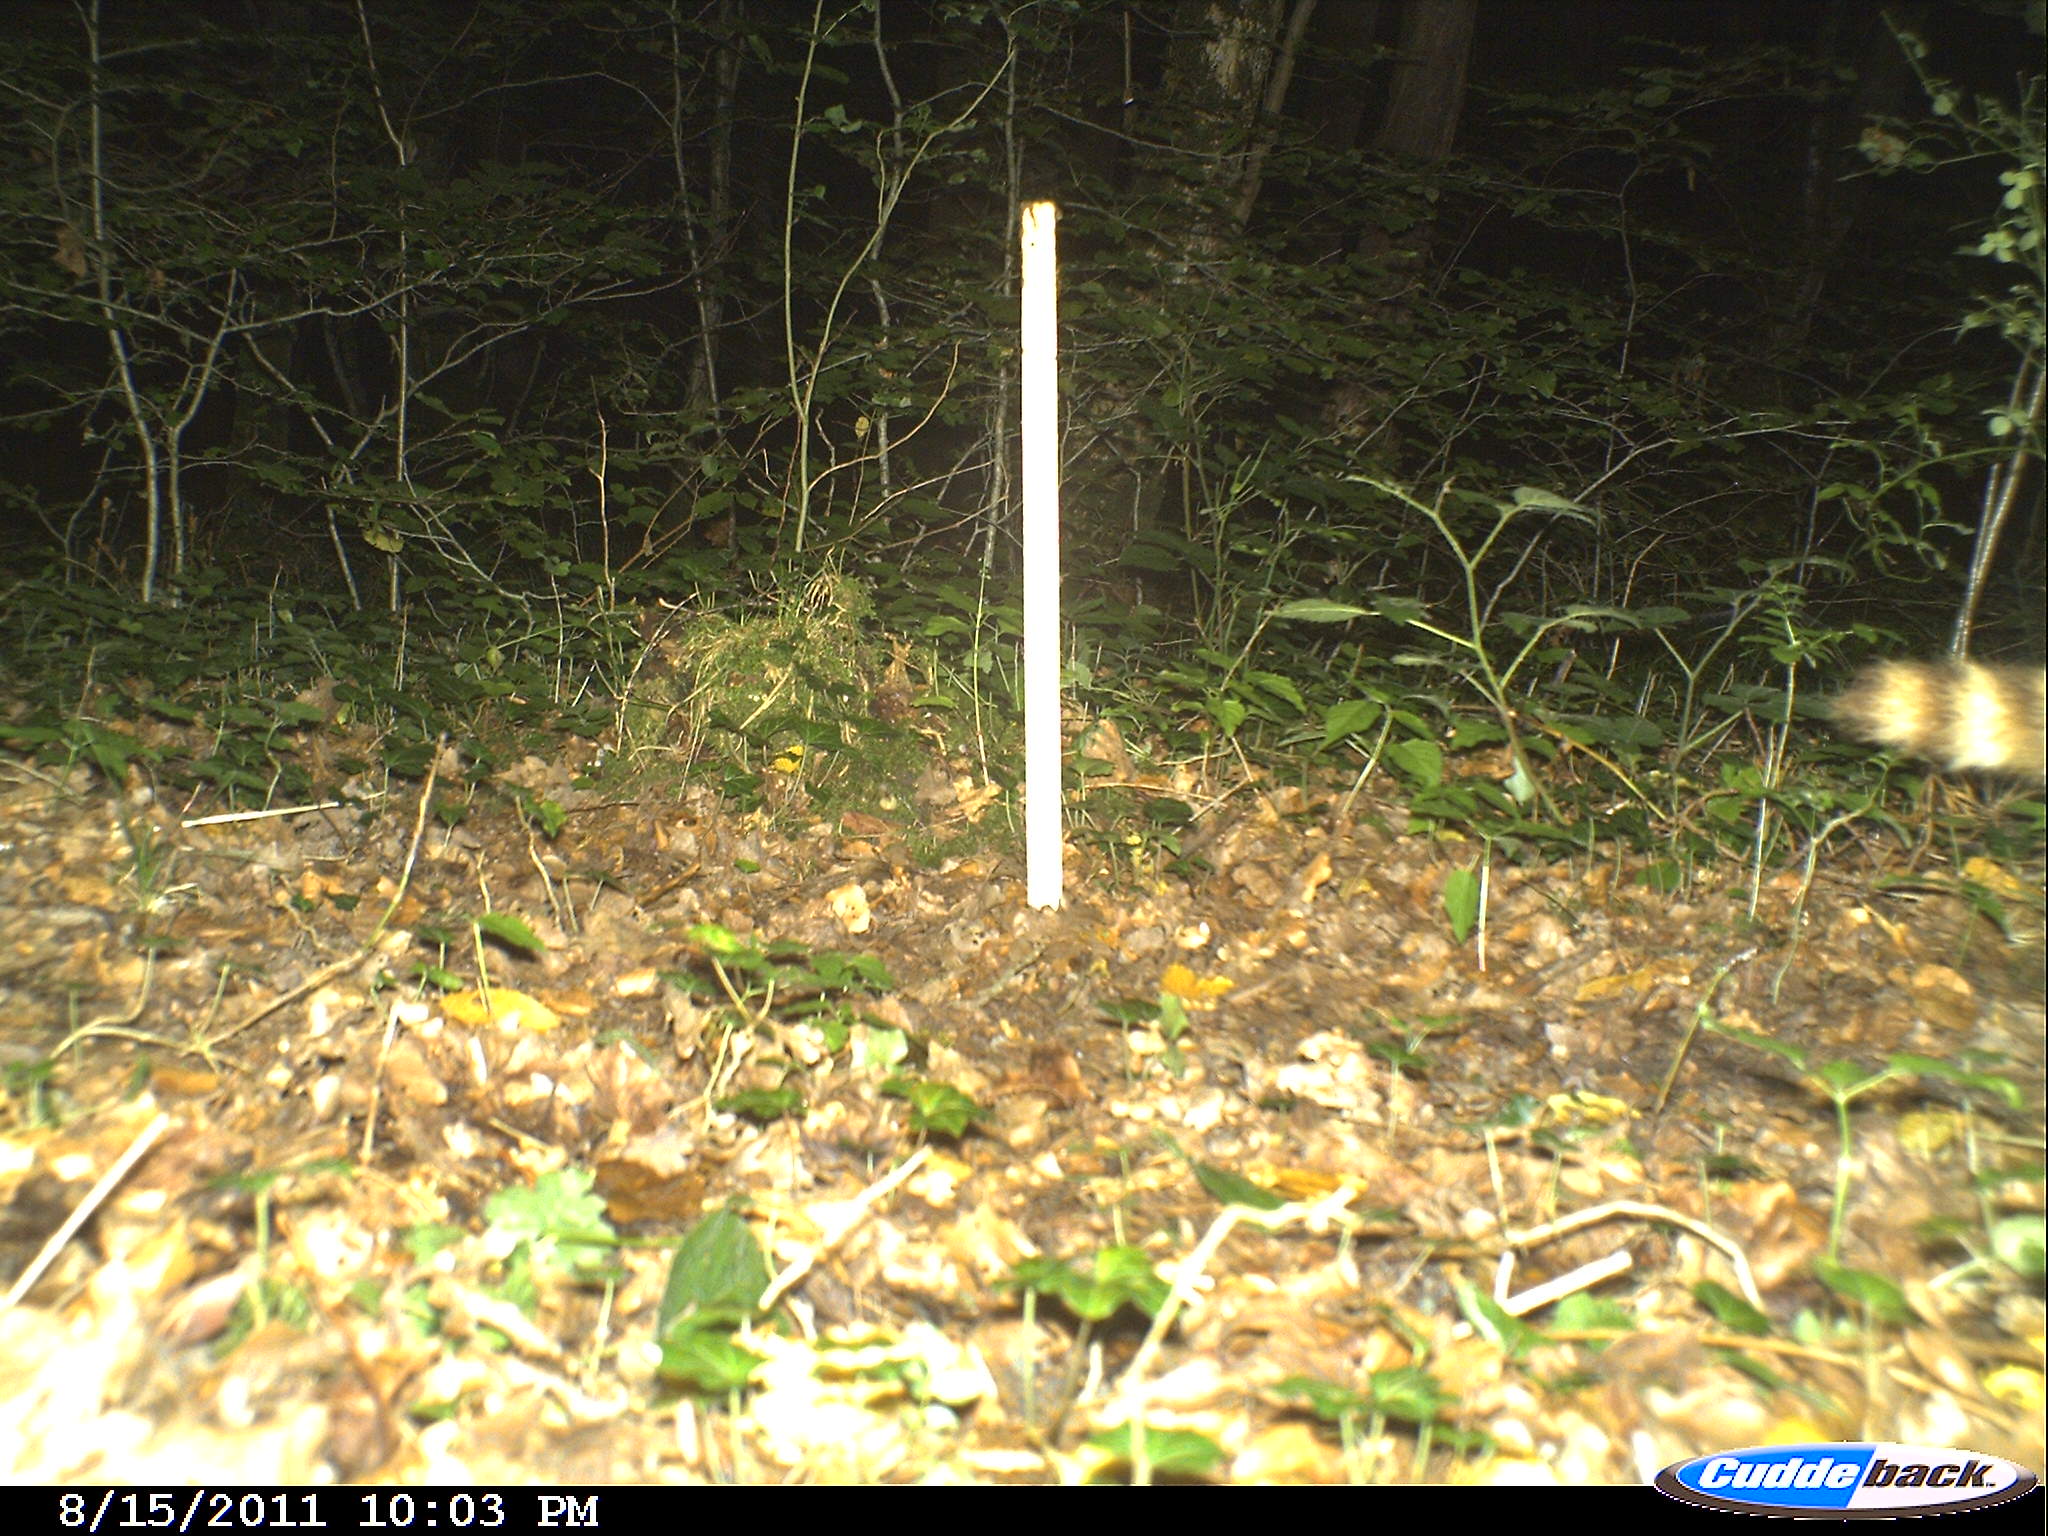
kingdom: Animalia
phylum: Chordata
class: Mammalia
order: Carnivora
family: Procyonidae
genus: Procyon
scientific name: Procyon lotor
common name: Raccoon
